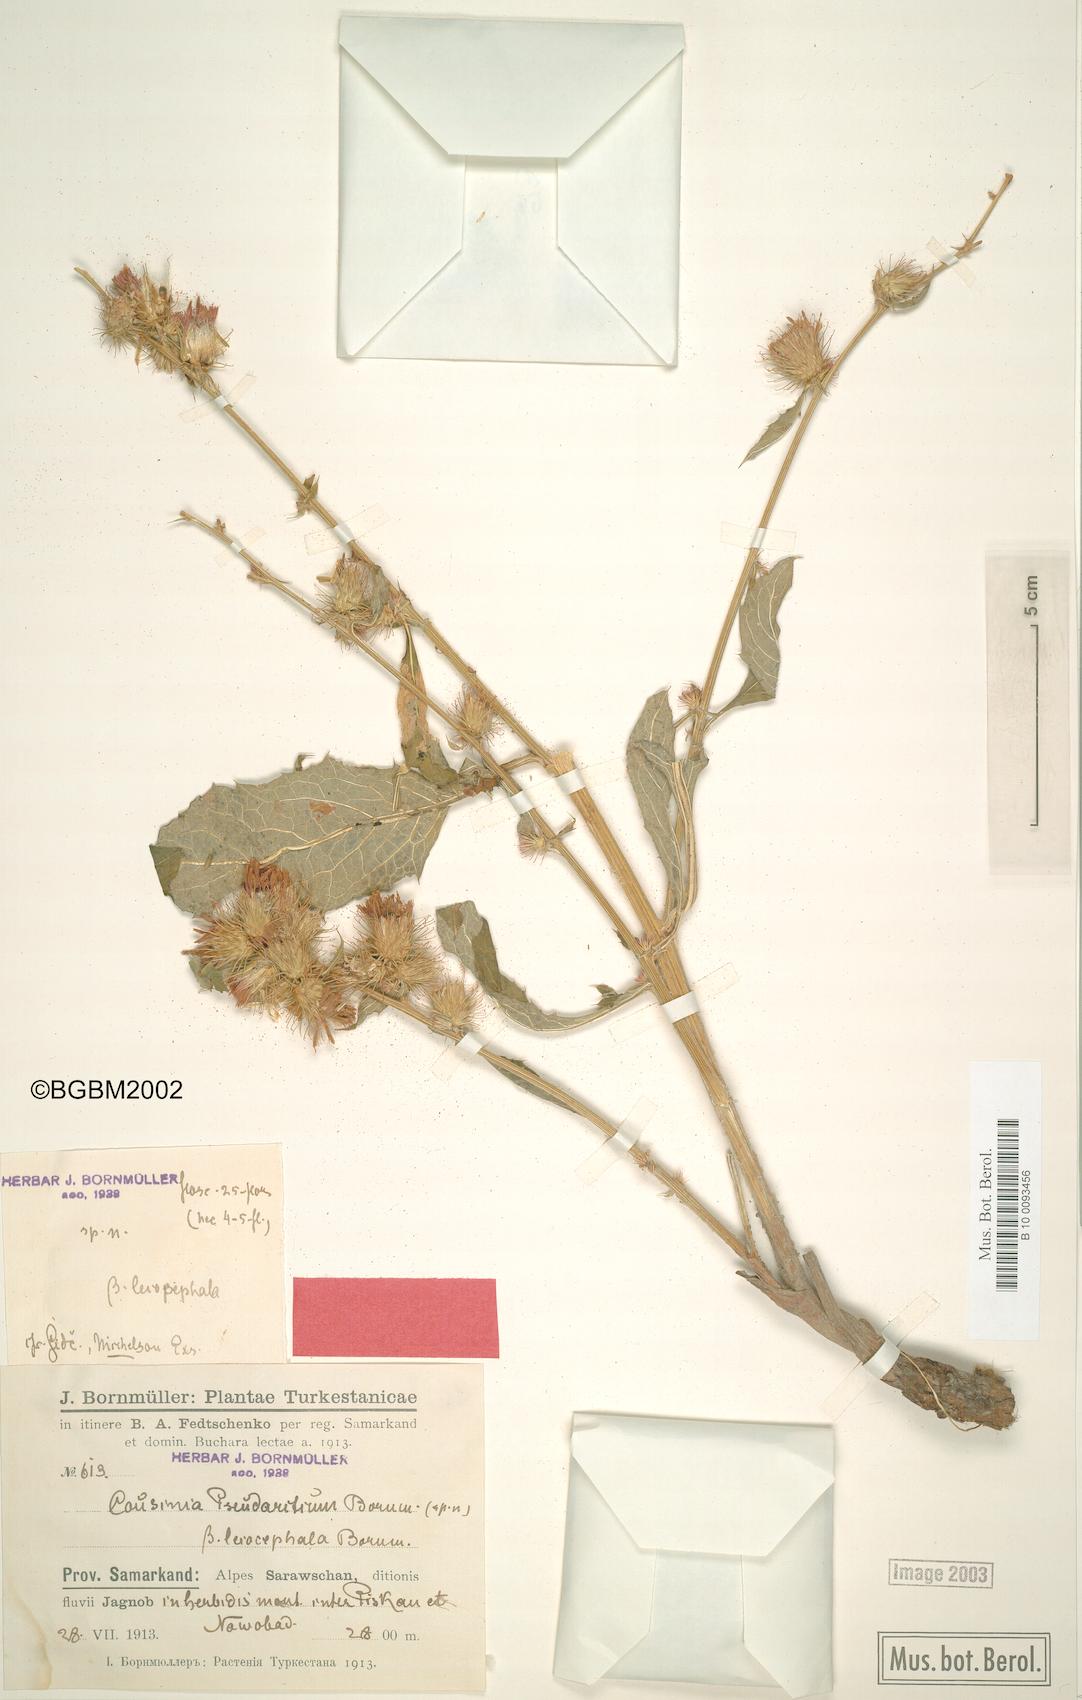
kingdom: Plantae
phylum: Tracheophyta
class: Magnoliopsida
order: Asterales
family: Asteraceae
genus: Arctium
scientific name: Arctium pseudarctium
